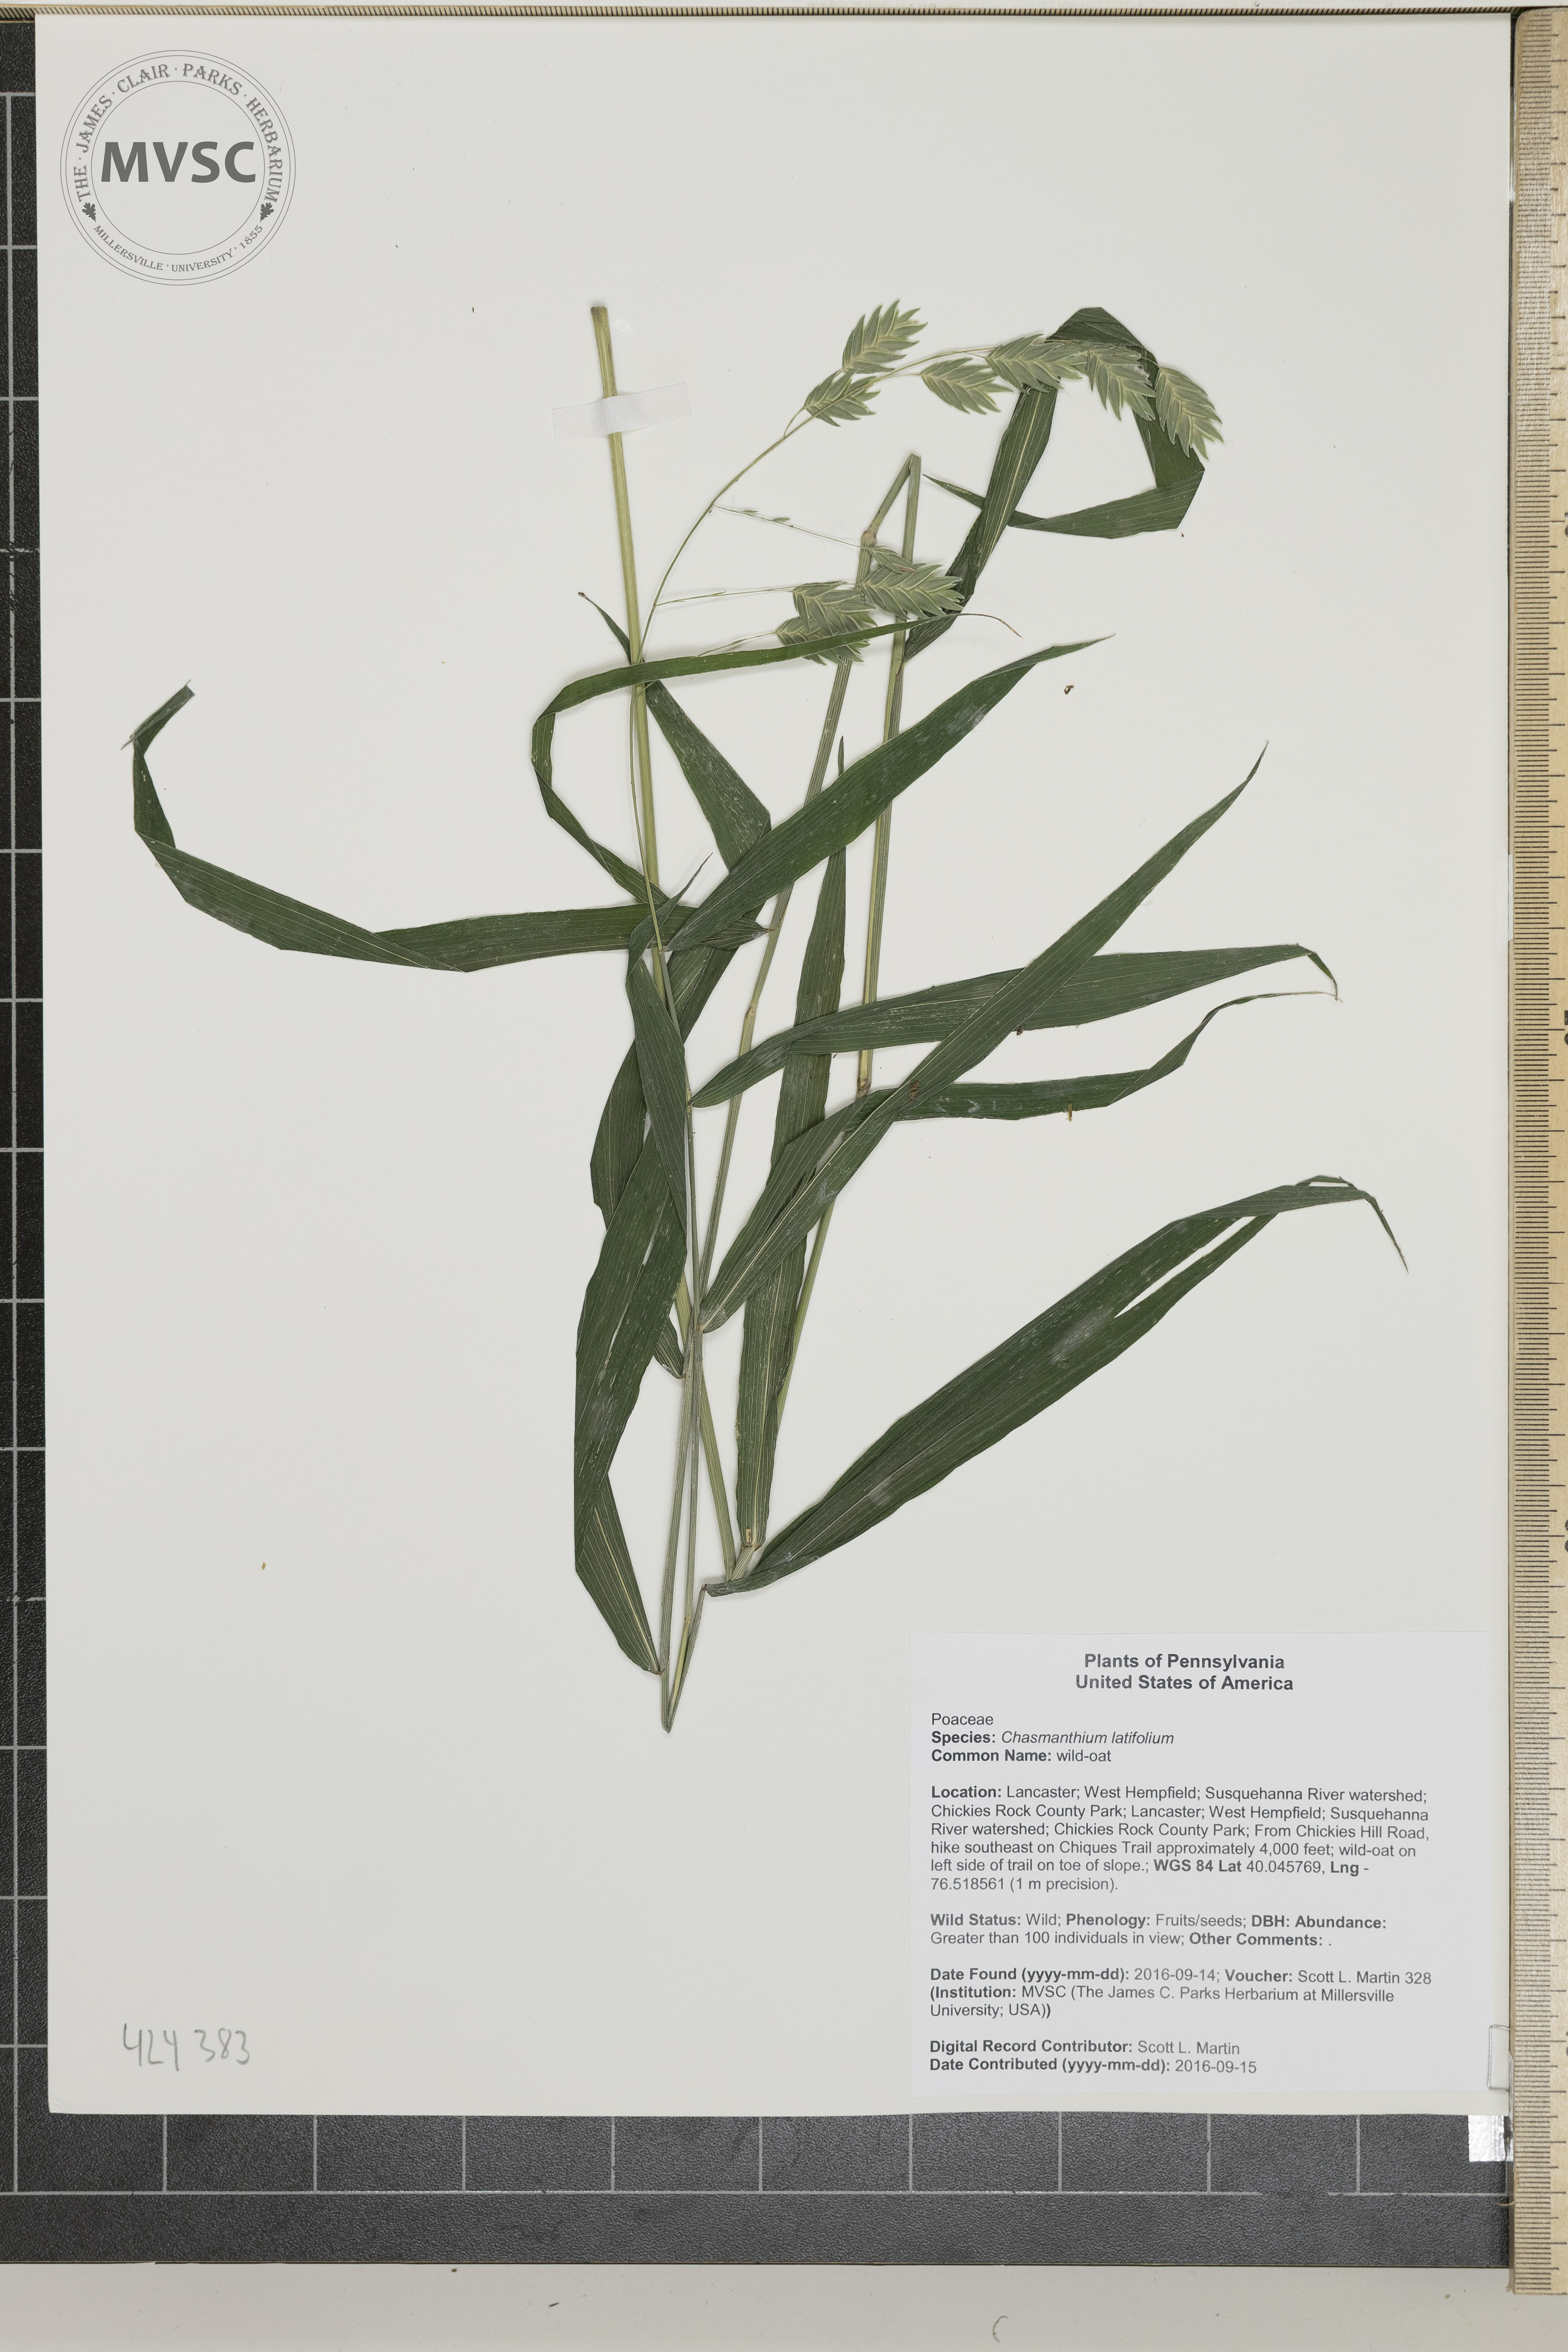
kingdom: Plantae
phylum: Tracheophyta
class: Liliopsida
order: Poales
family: Poaceae
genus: Chasmanthium
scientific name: Chasmanthium latifolium
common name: wild-oat
